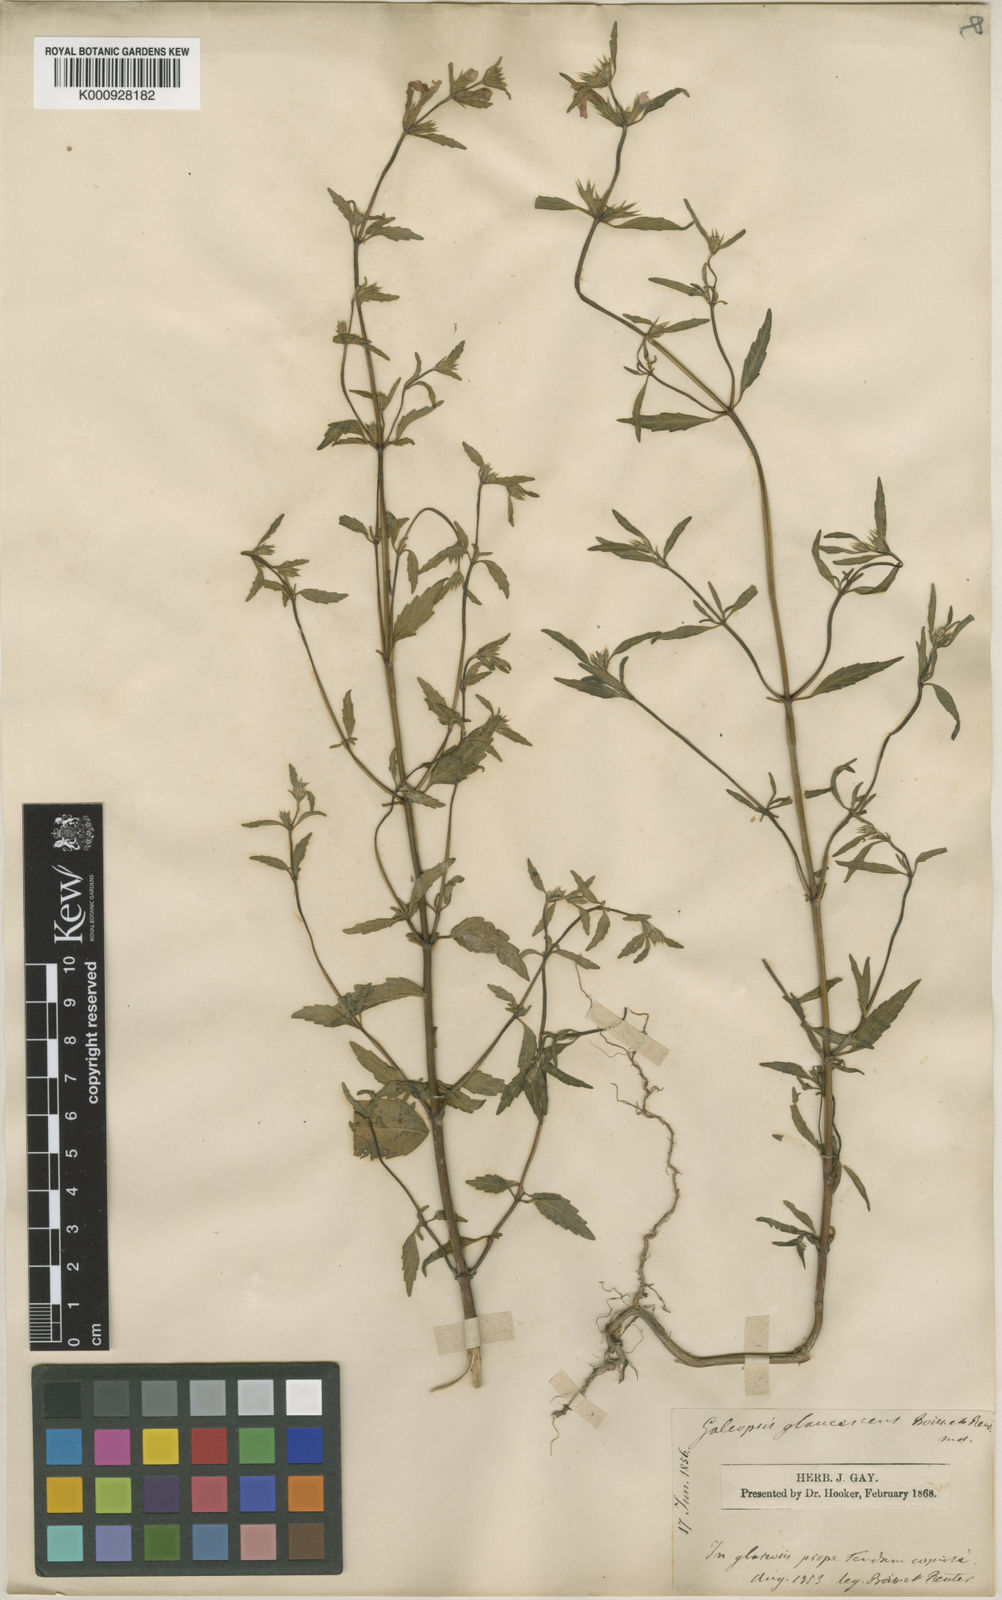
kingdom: Plantae
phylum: Tracheophyta
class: Magnoliopsida
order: Lamiales
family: Lamiaceae
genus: Galeopsis
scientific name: Galeopsis reuteri
